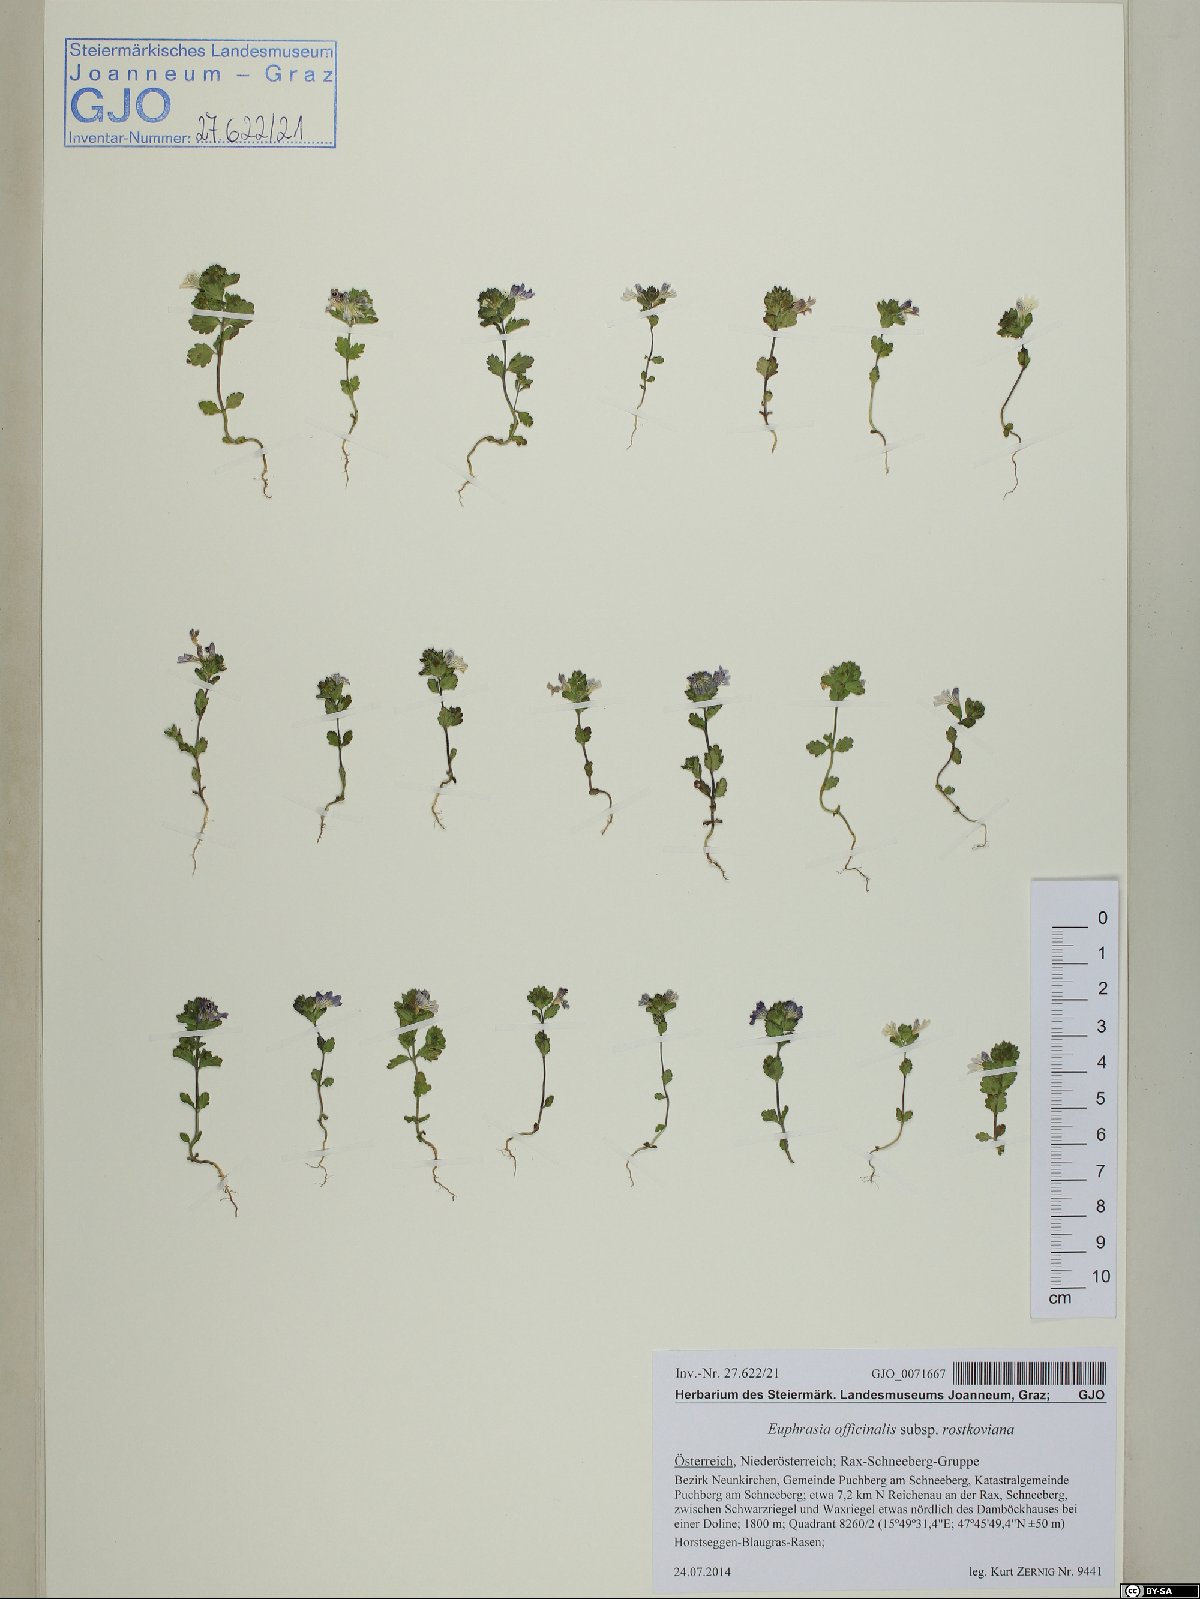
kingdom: Plantae
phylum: Tracheophyta
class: Magnoliopsida
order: Lamiales
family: Orobanchaceae
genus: Euphrasia
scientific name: Euphrasia officinalis
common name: Eyebright
